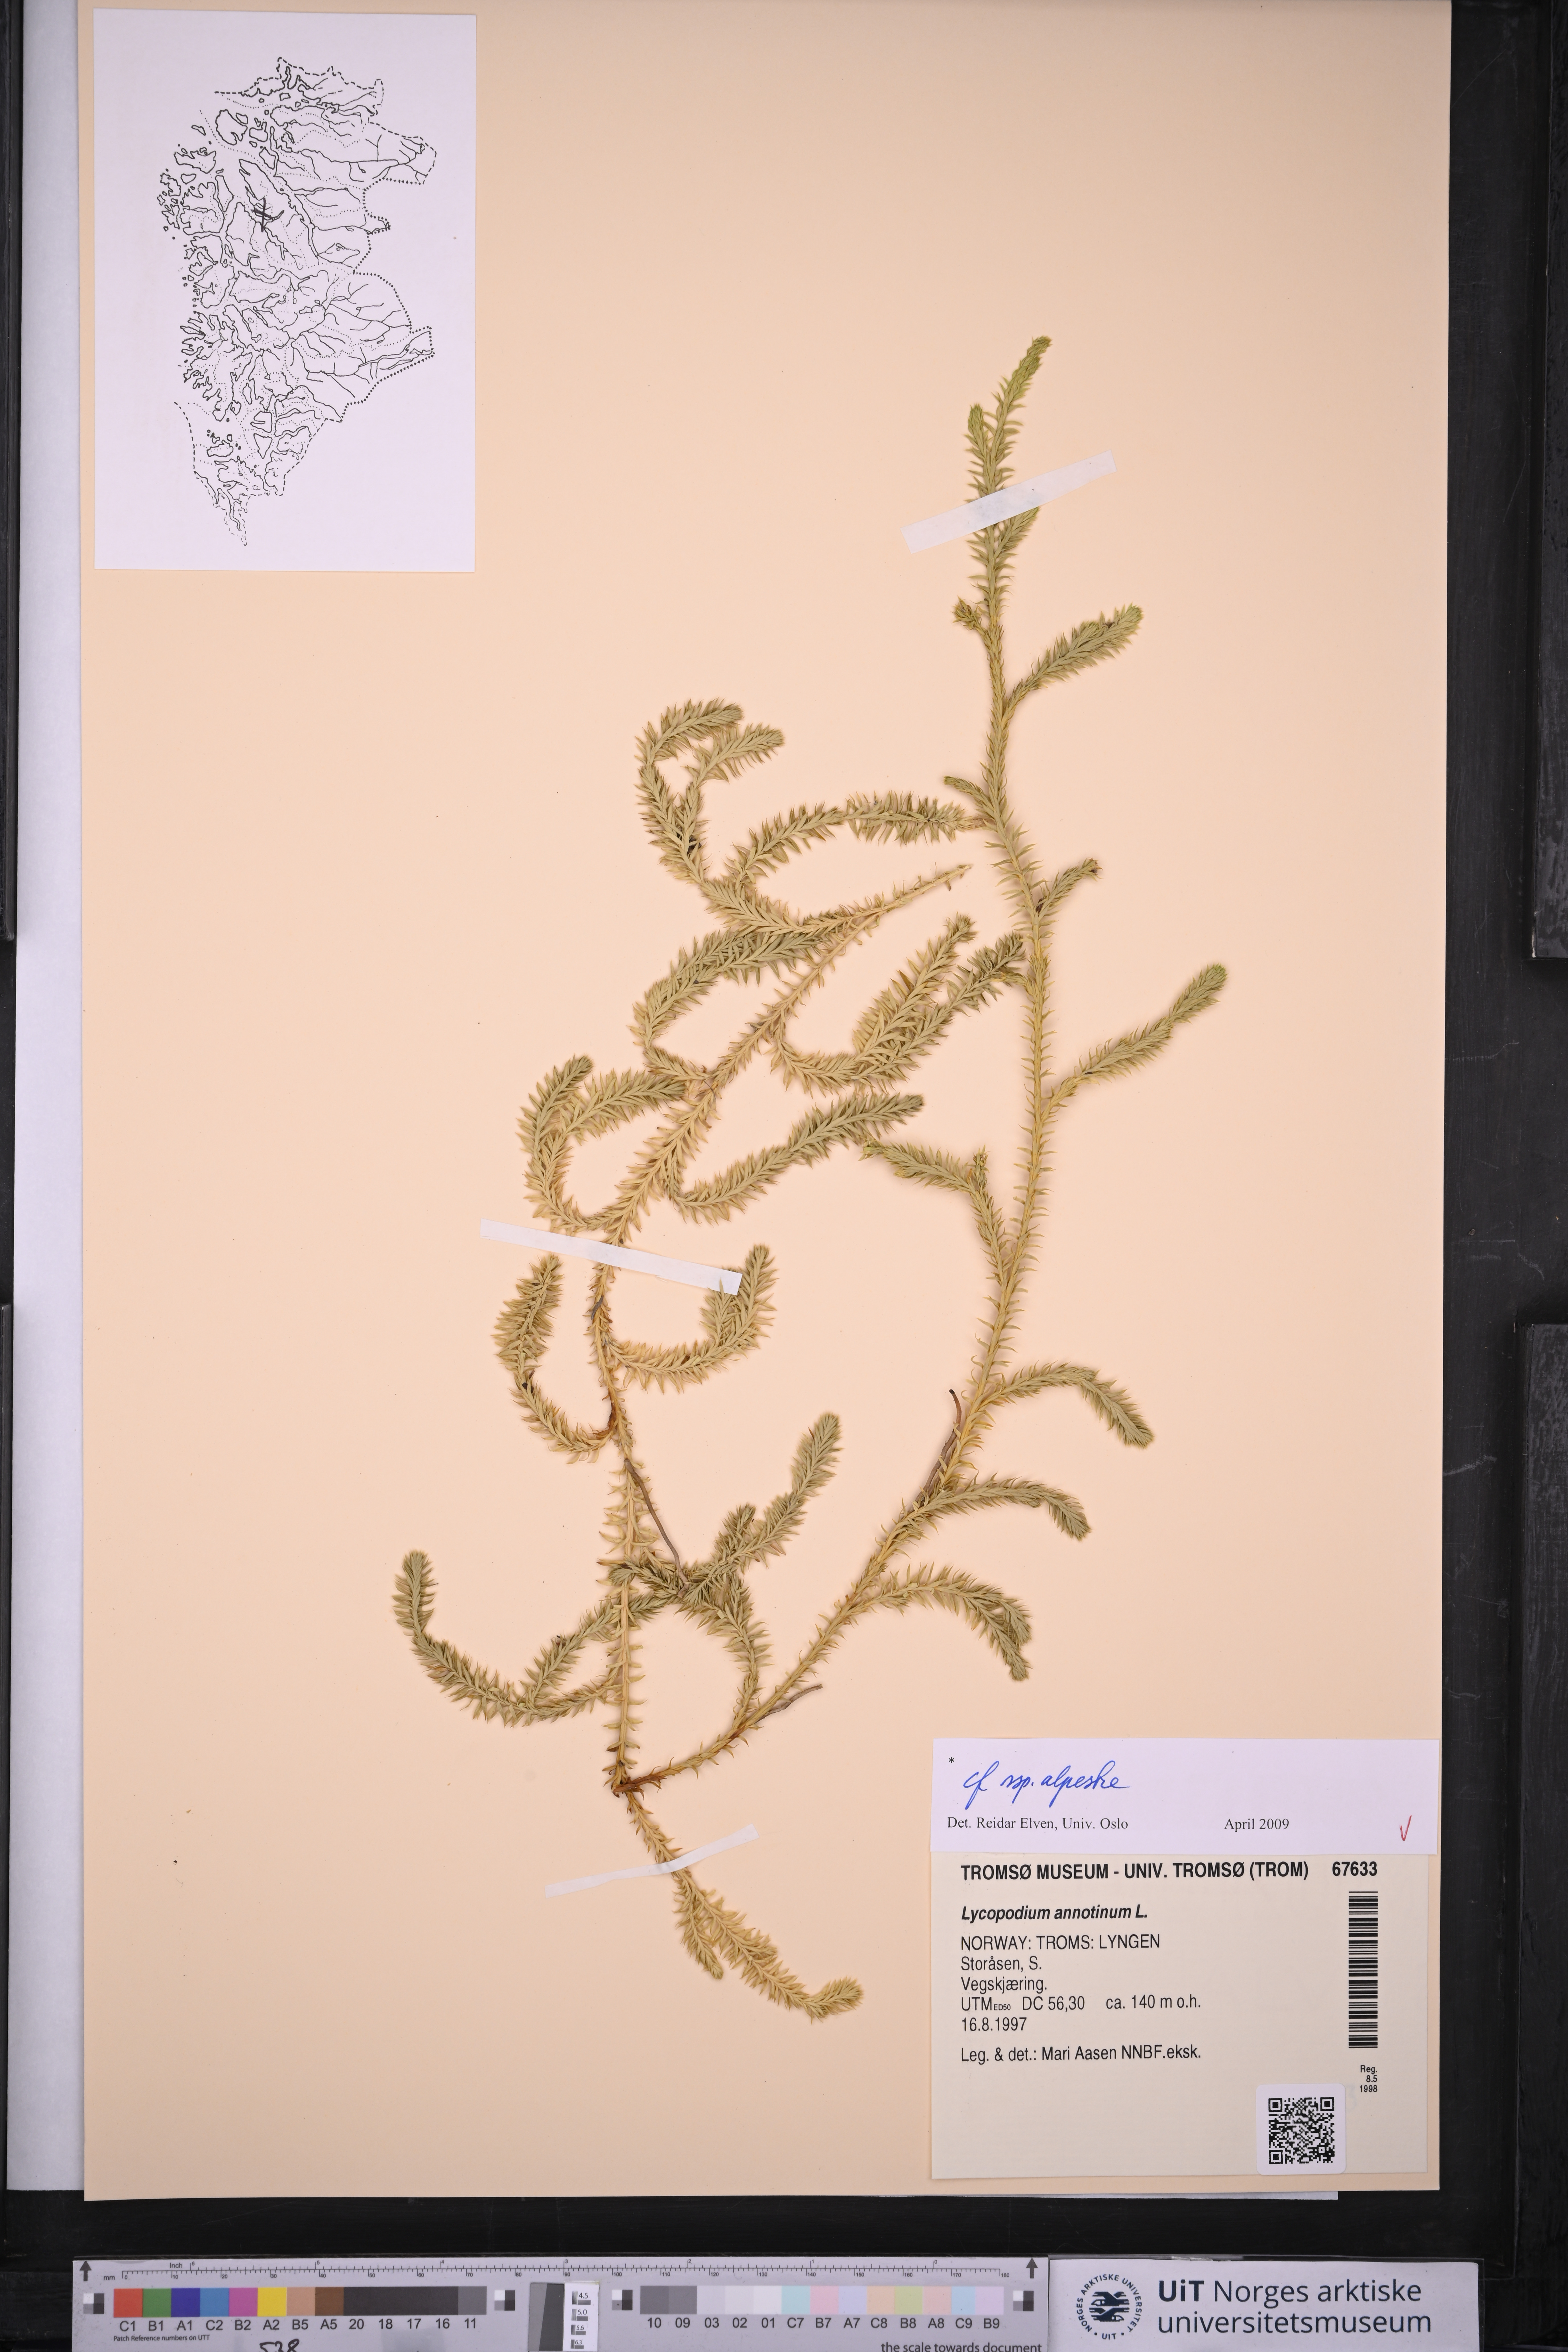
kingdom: Plantae
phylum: Tracheophyta
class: Lycopodiopsida
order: Lycopodiales
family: Lycopodiaceae
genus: Spinulum
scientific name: Spinulum annotinum
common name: Interrupted club-moss
